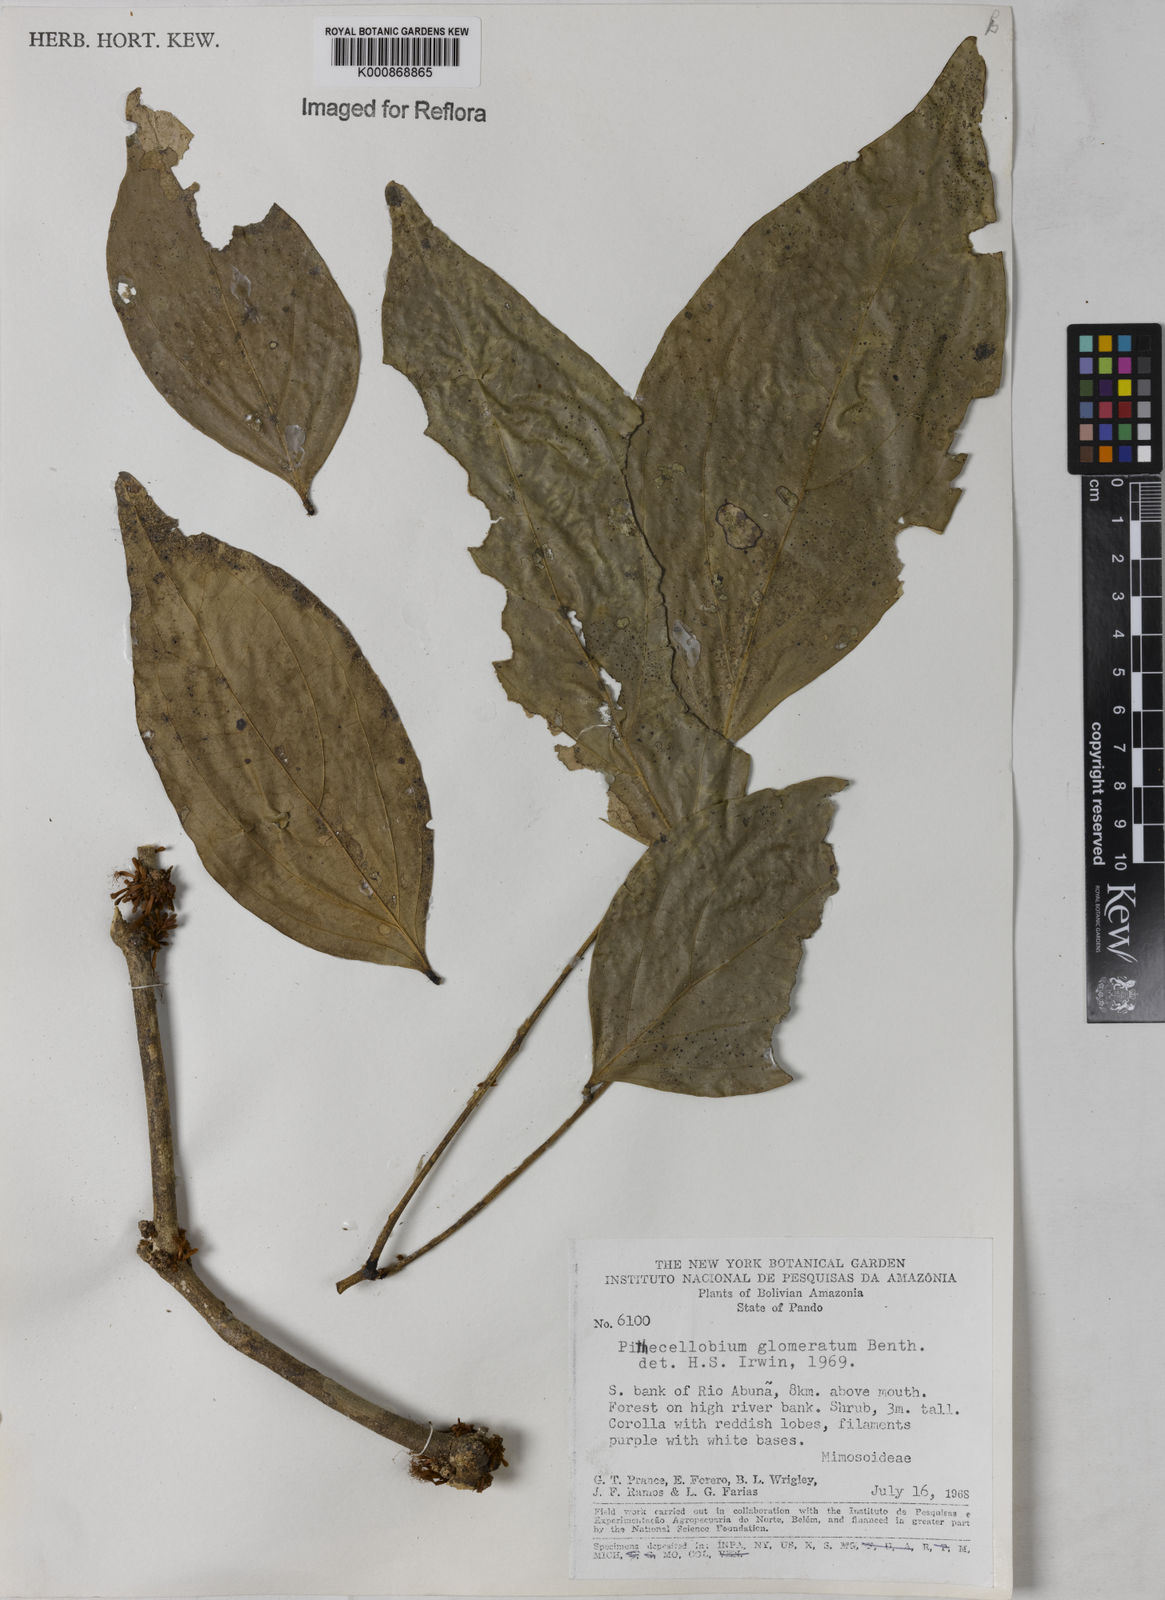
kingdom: Plantae
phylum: Tracheophyta
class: Magnoliopsida
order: Fabales
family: Fabaceae
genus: Zygia
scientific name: Zygia cataractae
